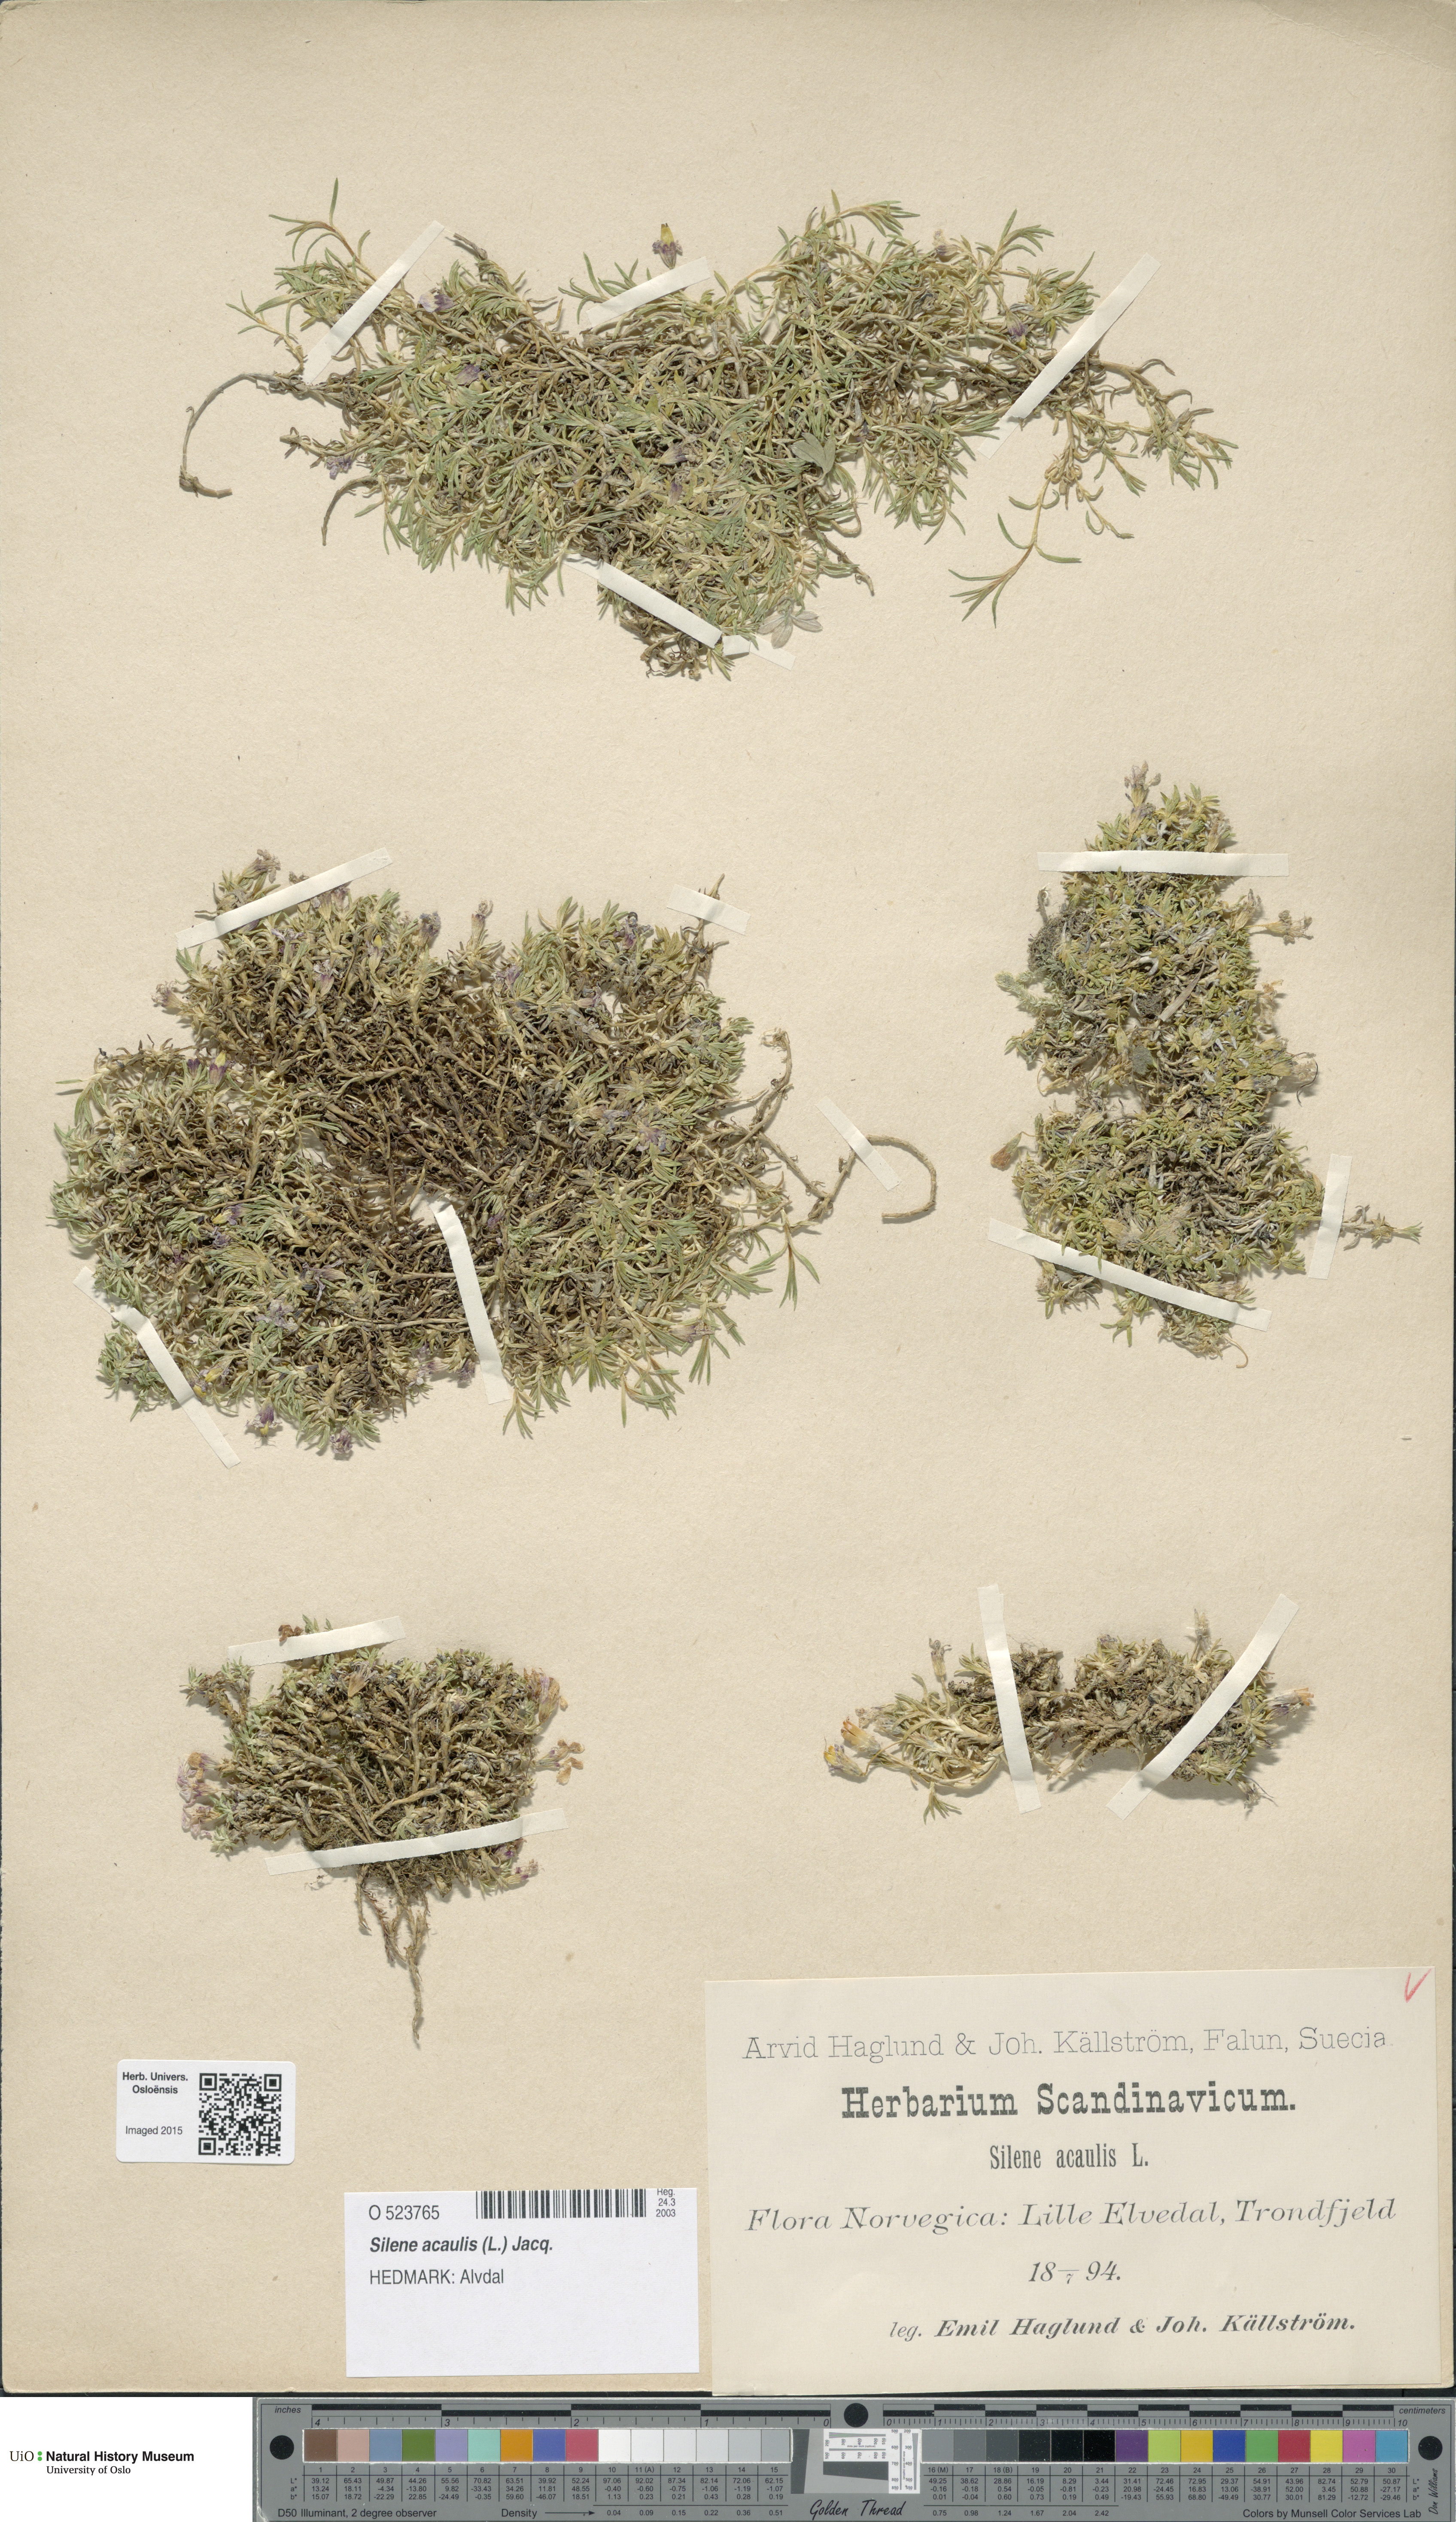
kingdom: Plantae
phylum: Tracheophyta
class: Magnoliopsida
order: Caryophyllales
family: Caryophyllaceae
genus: Silene
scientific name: Silene acaulis
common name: Moss campion
